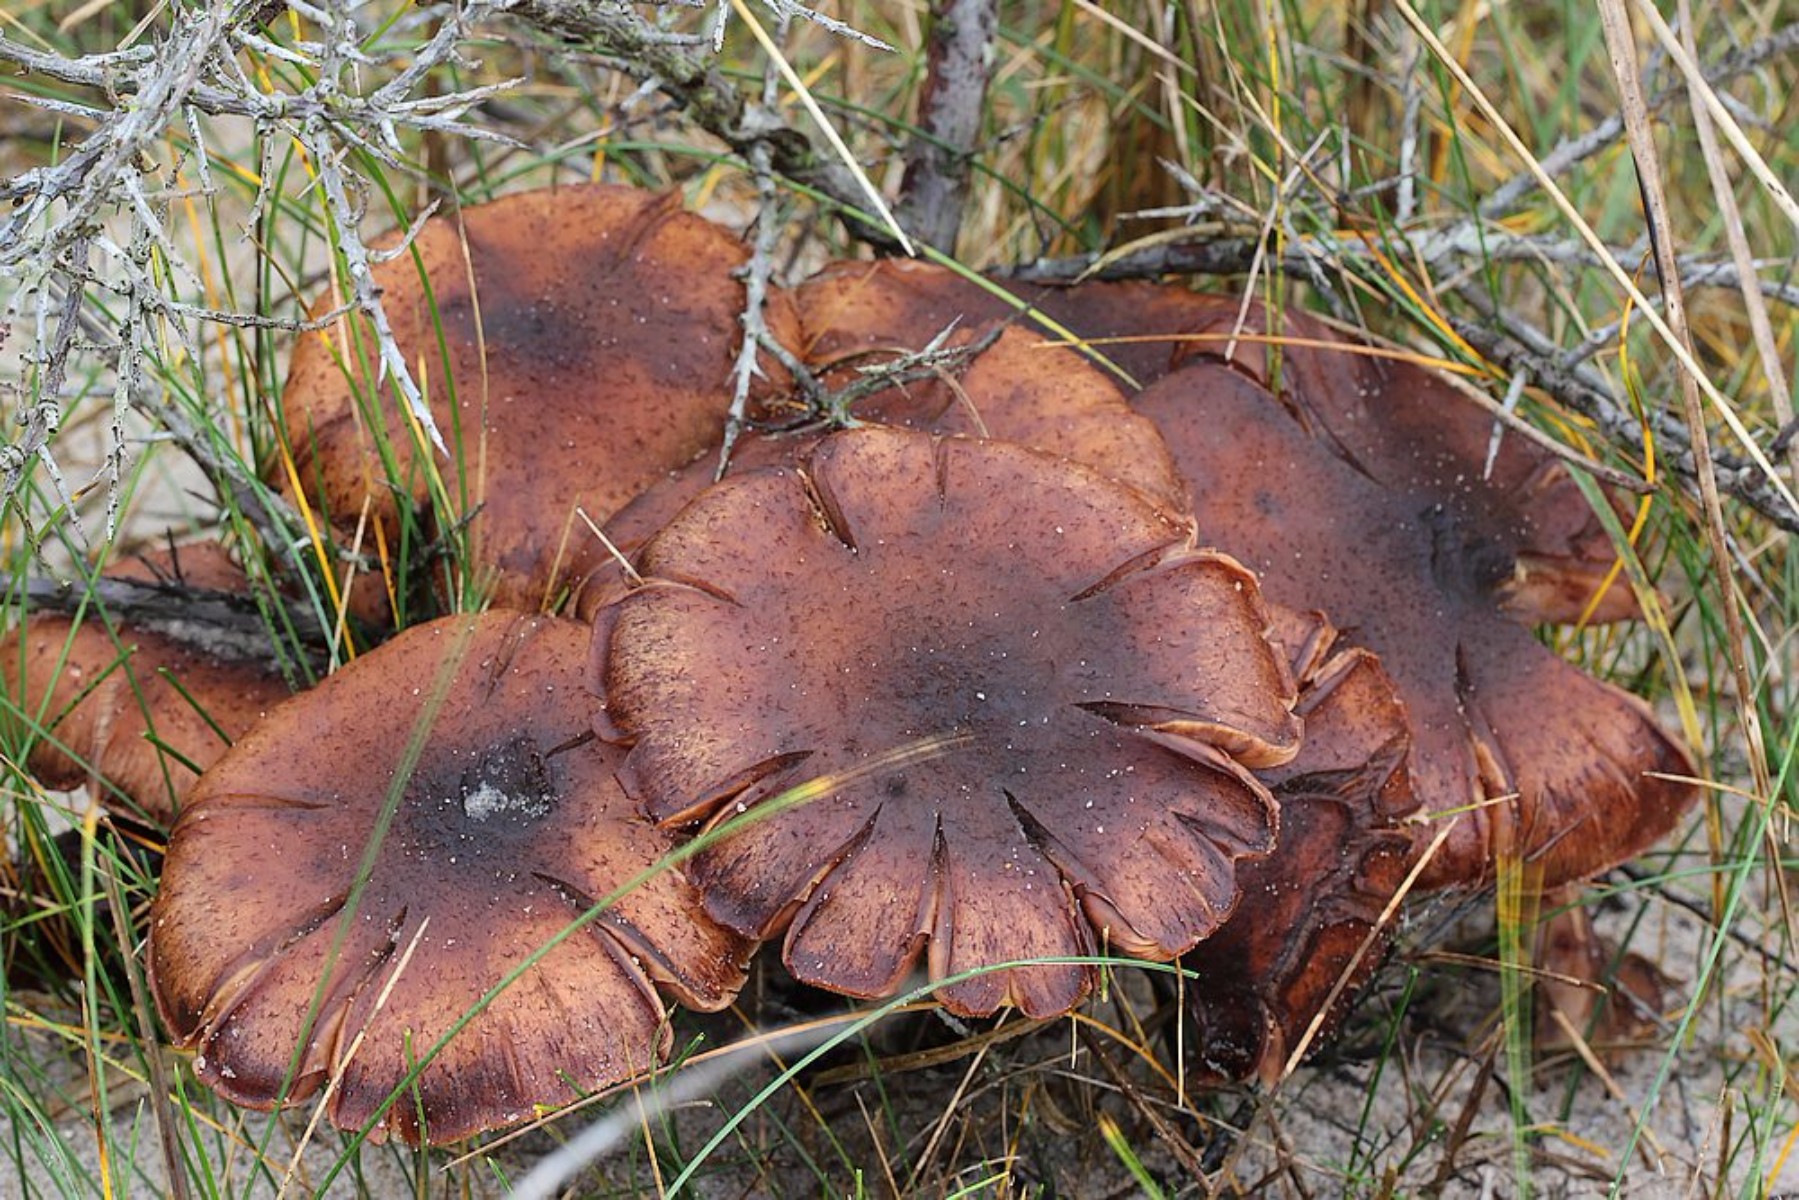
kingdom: Fungi
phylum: Basidiomycota
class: Agaricomycetes
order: Agaricales
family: Physalacriaceae
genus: Armillaria
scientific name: Armillaria ostoyae
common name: mørk honningsvamp
